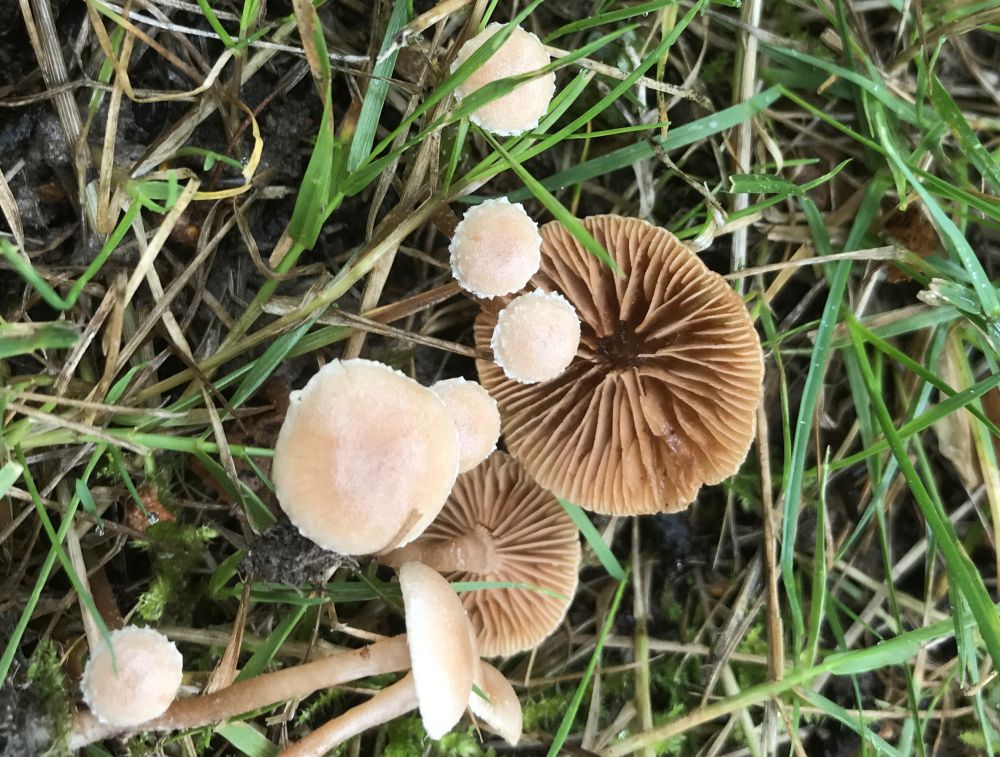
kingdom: Fungi
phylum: Basidiomycota
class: Agaricomycetes
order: Agaricales
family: Tubariaceae
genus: Tubaria
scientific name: Tubaria conspersa
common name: bleg fnughat
